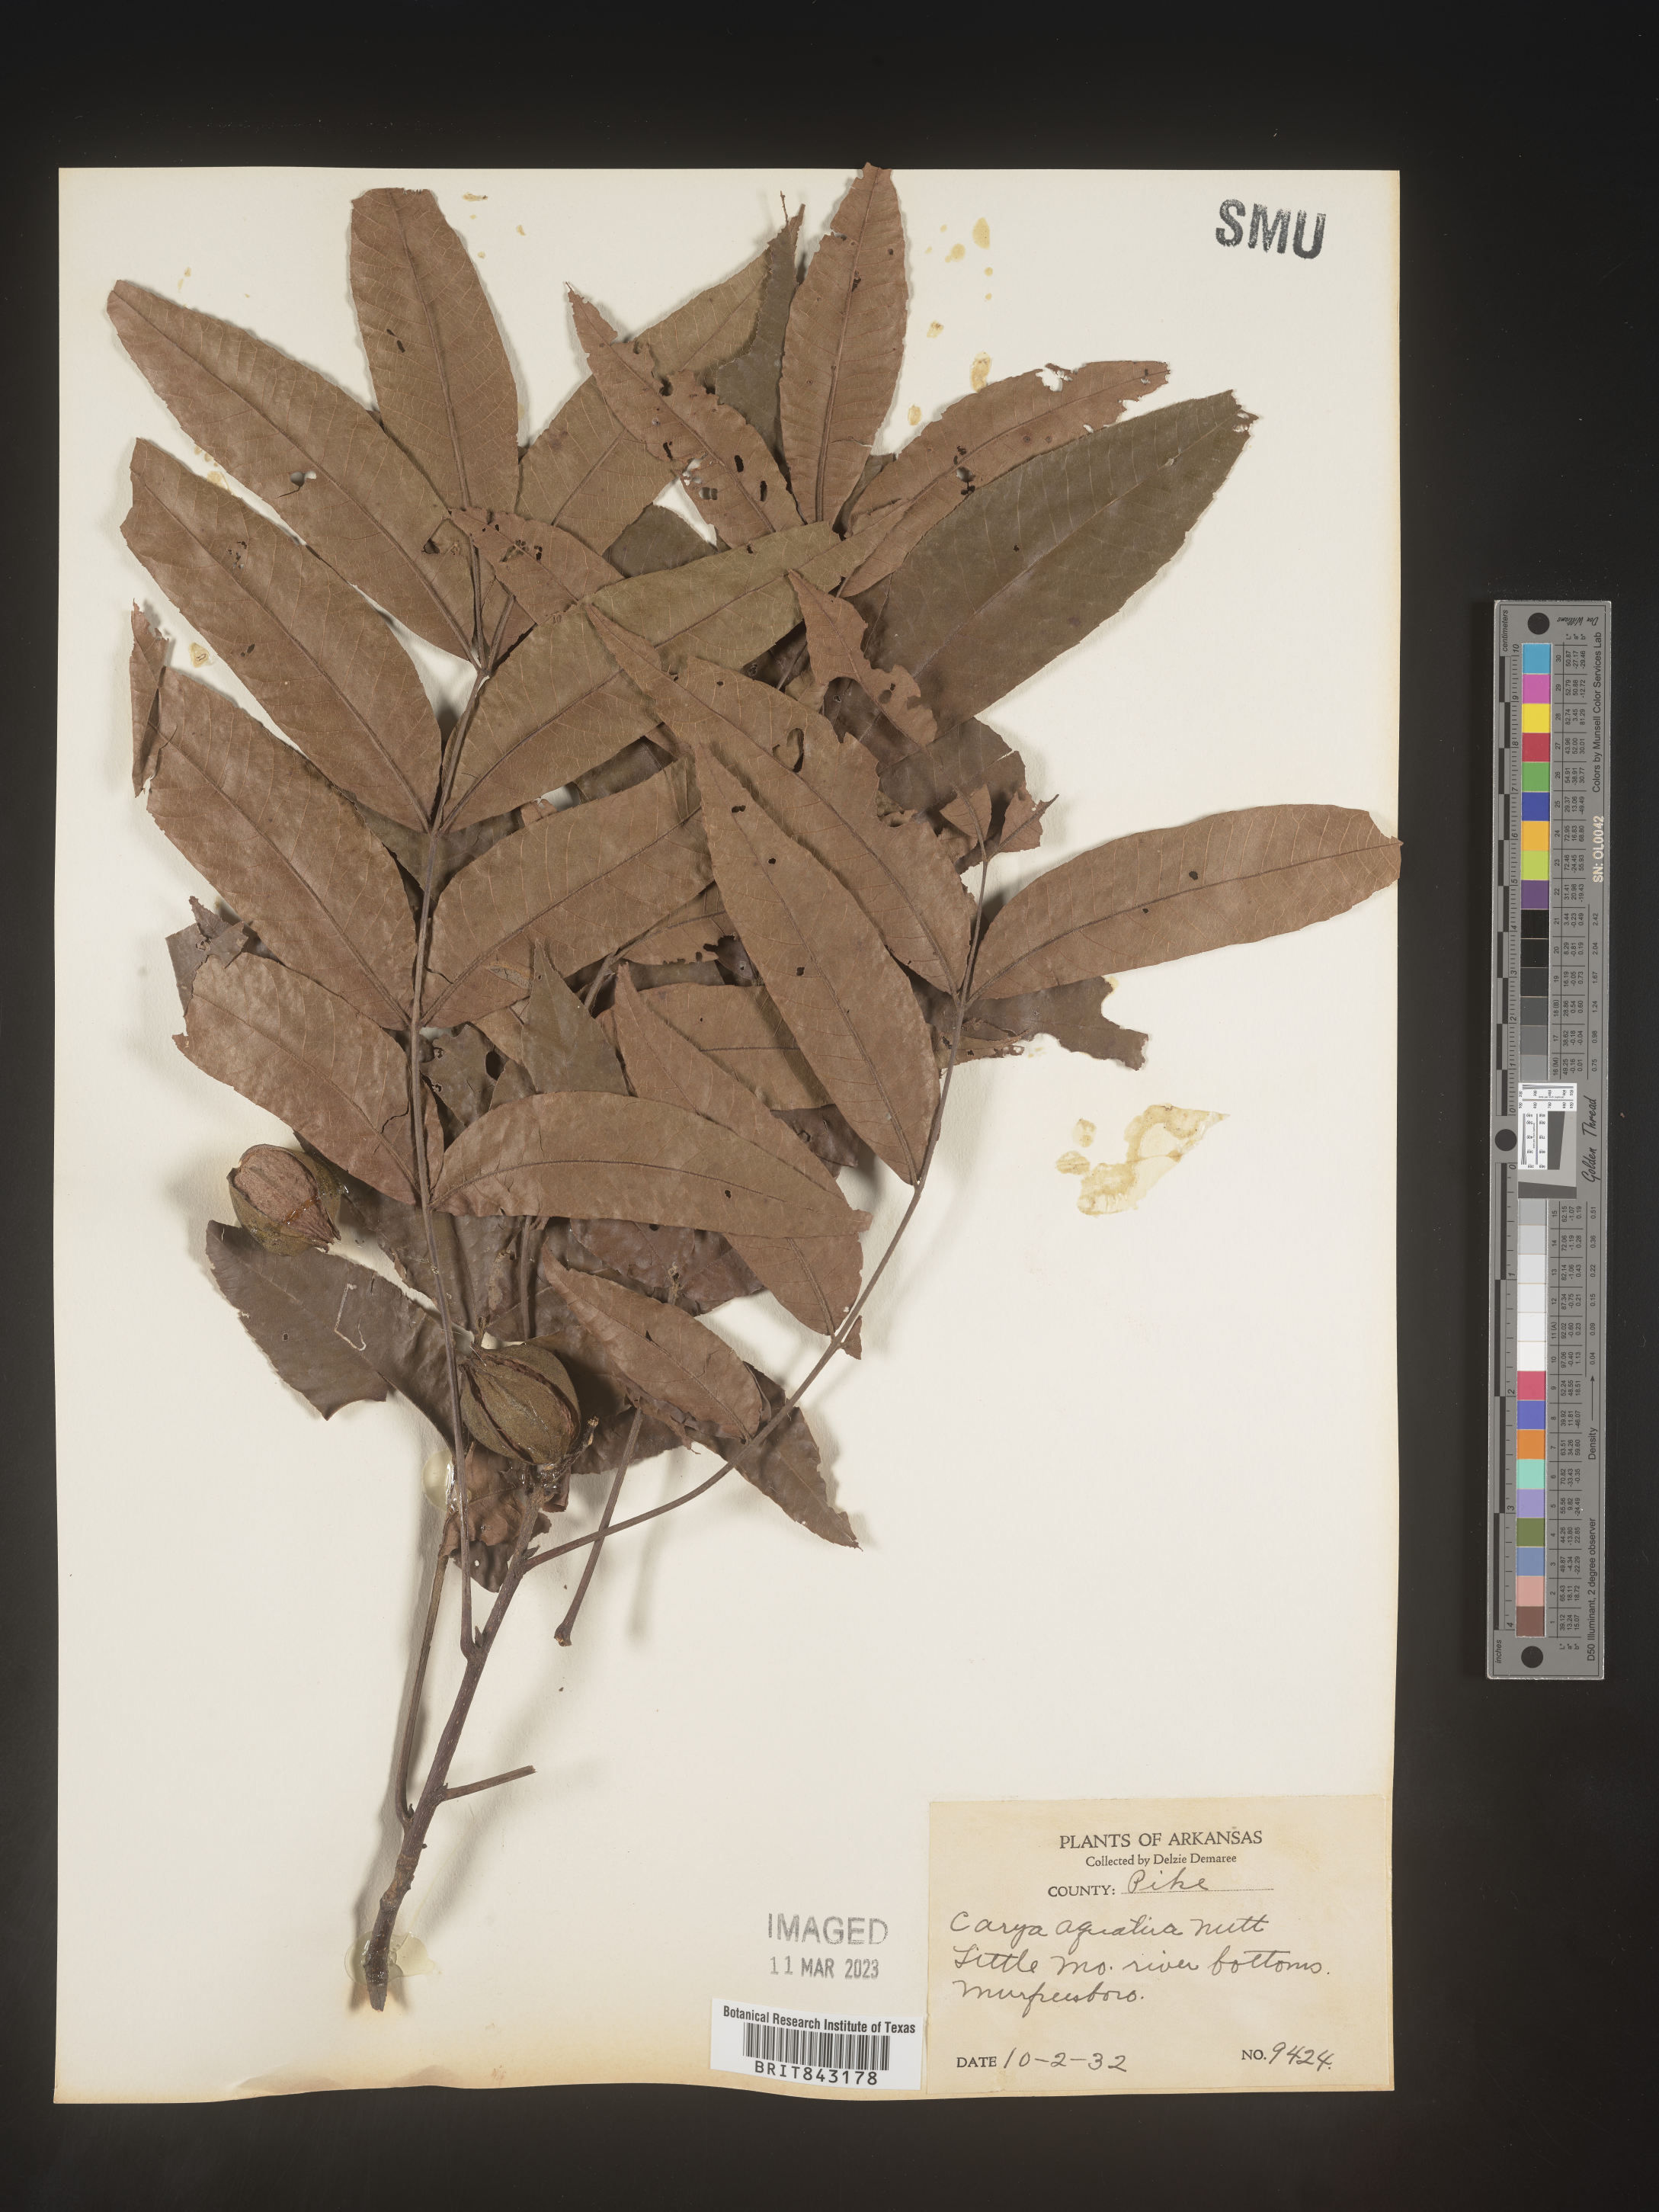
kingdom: Plantae
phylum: Tracheophyta
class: Magnoliopsida
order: Fagales
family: Juglandaceae
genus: Carya
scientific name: Carya aquatica
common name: Water hickory
